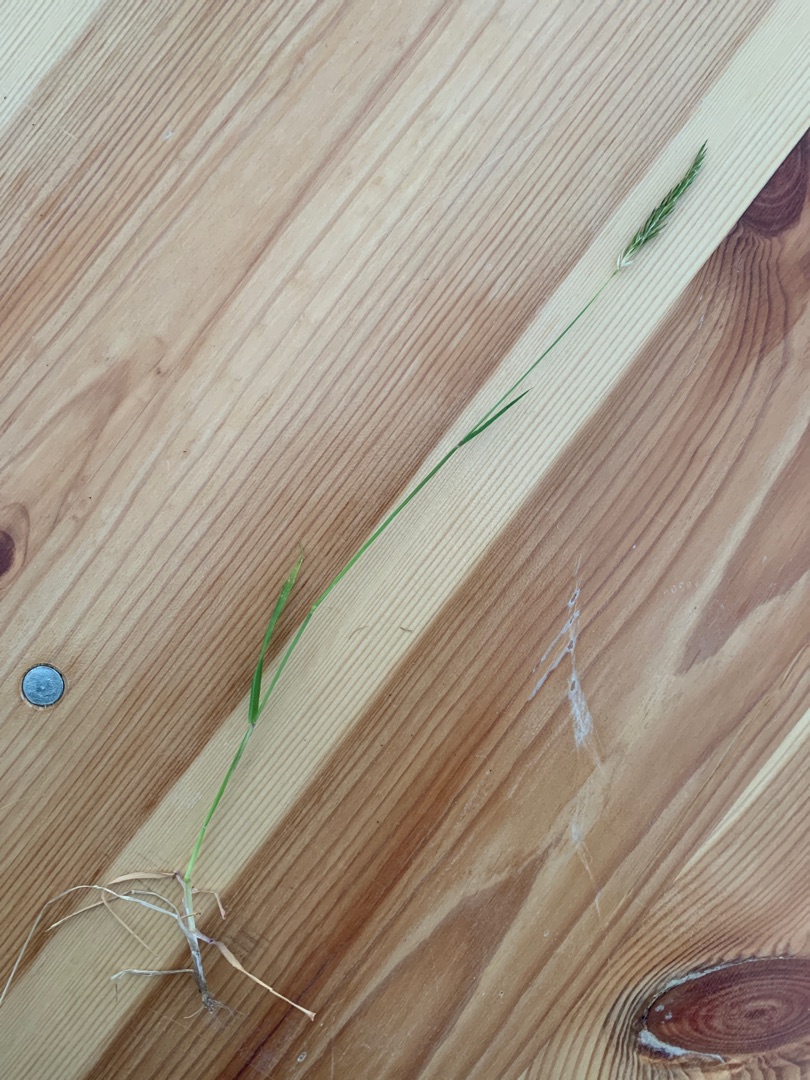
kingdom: Plantae
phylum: Tracheophyta
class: Liliopsida
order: Poales
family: Poaceae
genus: Anthoxanthum
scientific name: Anthoxanthum odoratum
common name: Vellugtende gulaks
